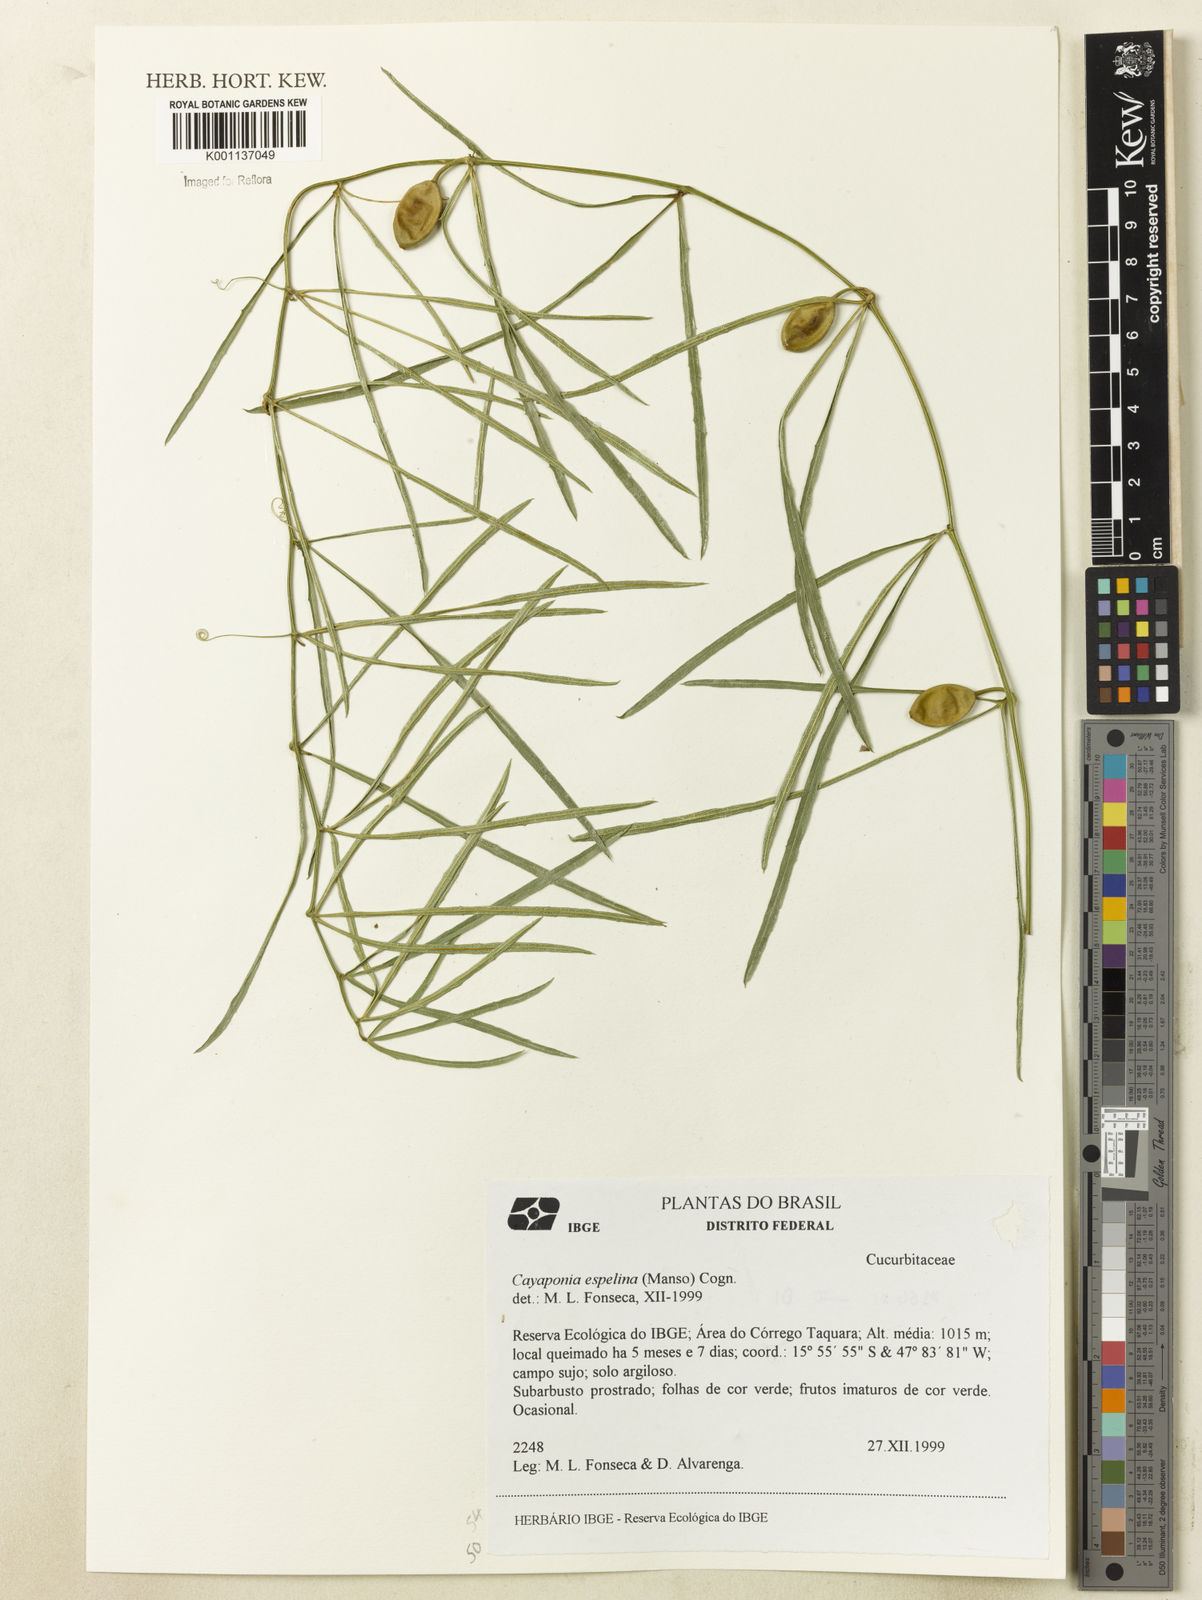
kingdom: Plantae
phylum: Tracheophyta
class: Magnoliopsida
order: Cucurbitales
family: Cucurbitaceae
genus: Cayaponia
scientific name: Cayaponia espelina
